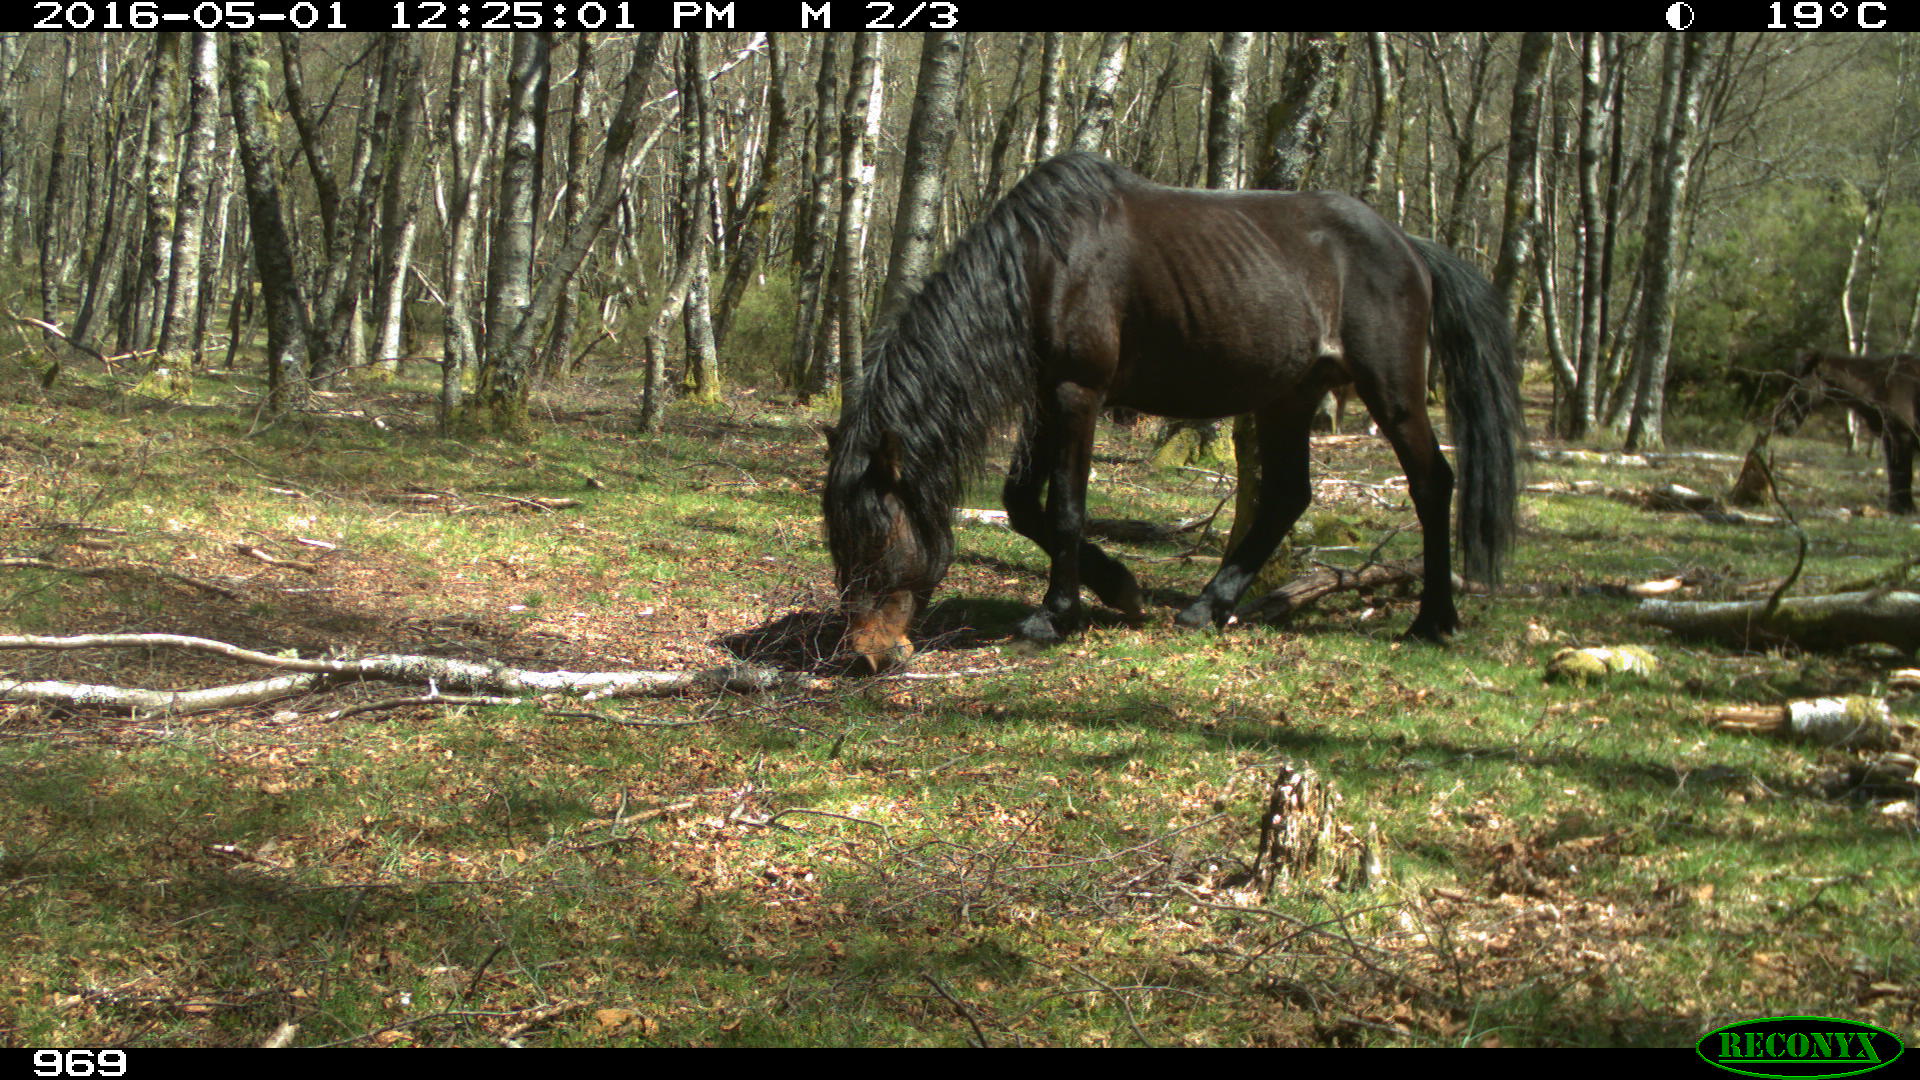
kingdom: Animalia
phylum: Chordata
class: Mammalia
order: Perissodactyla
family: Equidae
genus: Equus
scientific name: Equus caballus
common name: Horse
